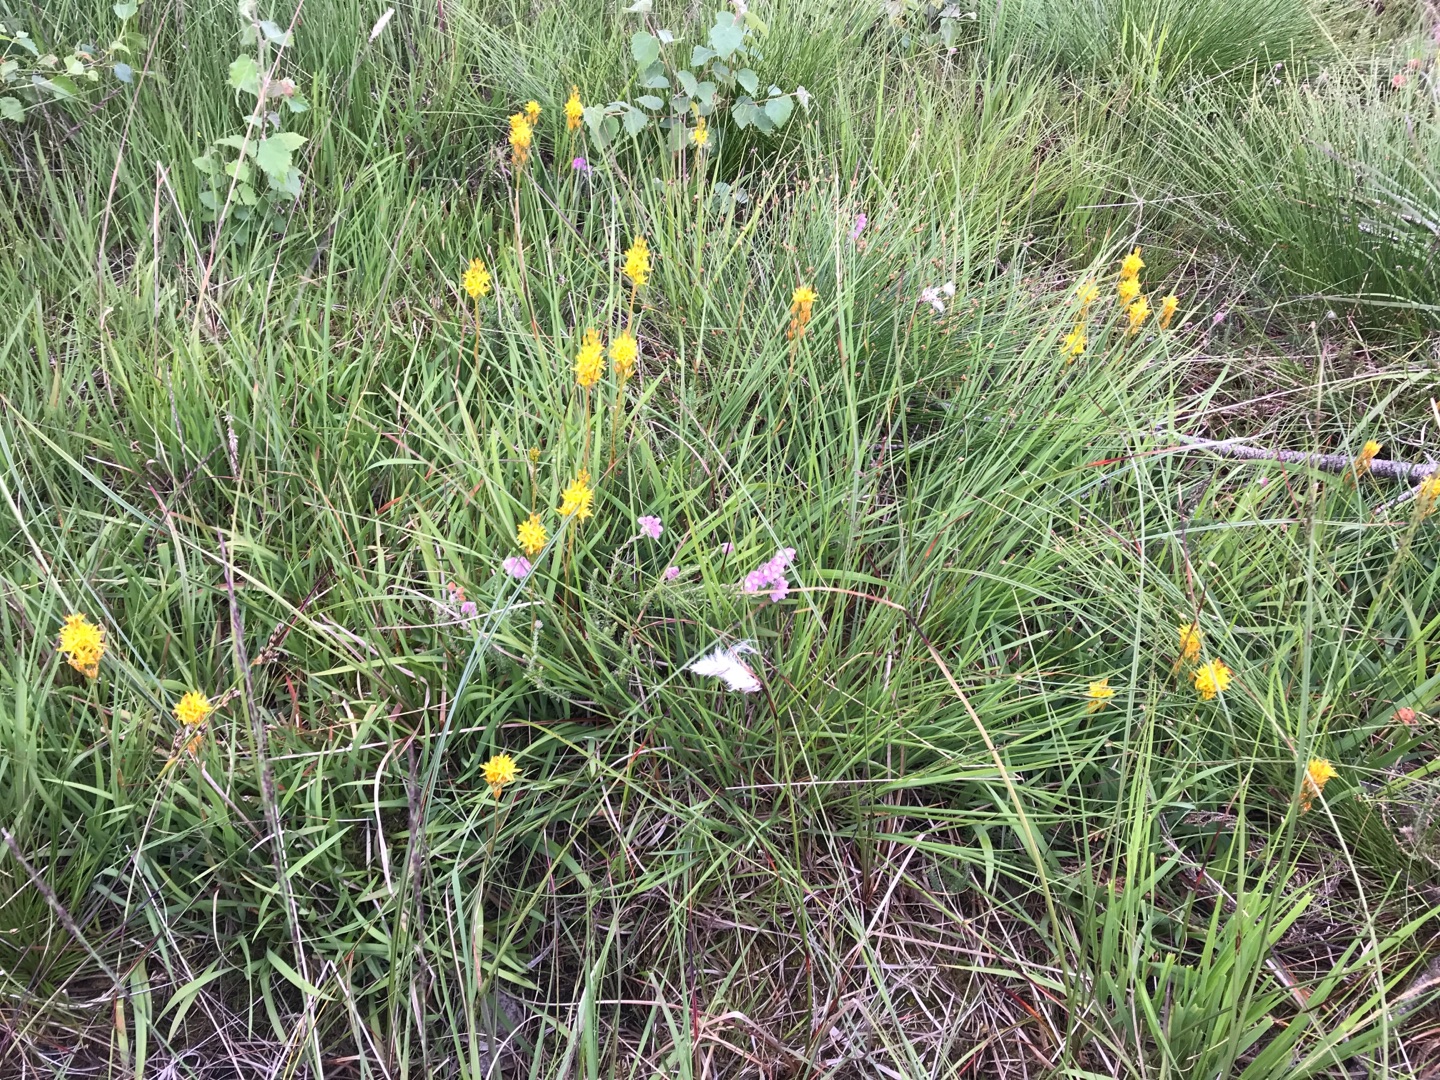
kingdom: Plantae
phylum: Tracheophyta
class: Liliopsida
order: Dioscoreales
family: Nartheciaceae
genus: Narthecium
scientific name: Narthecium ossifragum
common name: Benbræk
